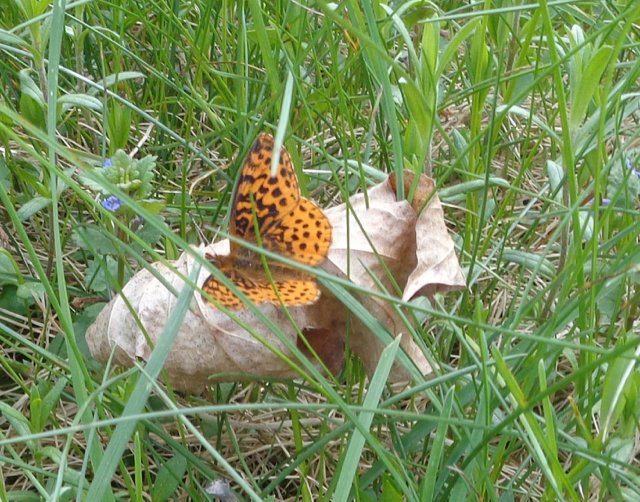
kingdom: Animalia
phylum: Arthropoda
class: Insecta
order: Lepidoptera
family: Nymphalidae
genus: Clossiana
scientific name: Clossiana toddi
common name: Meadow Fritillary
